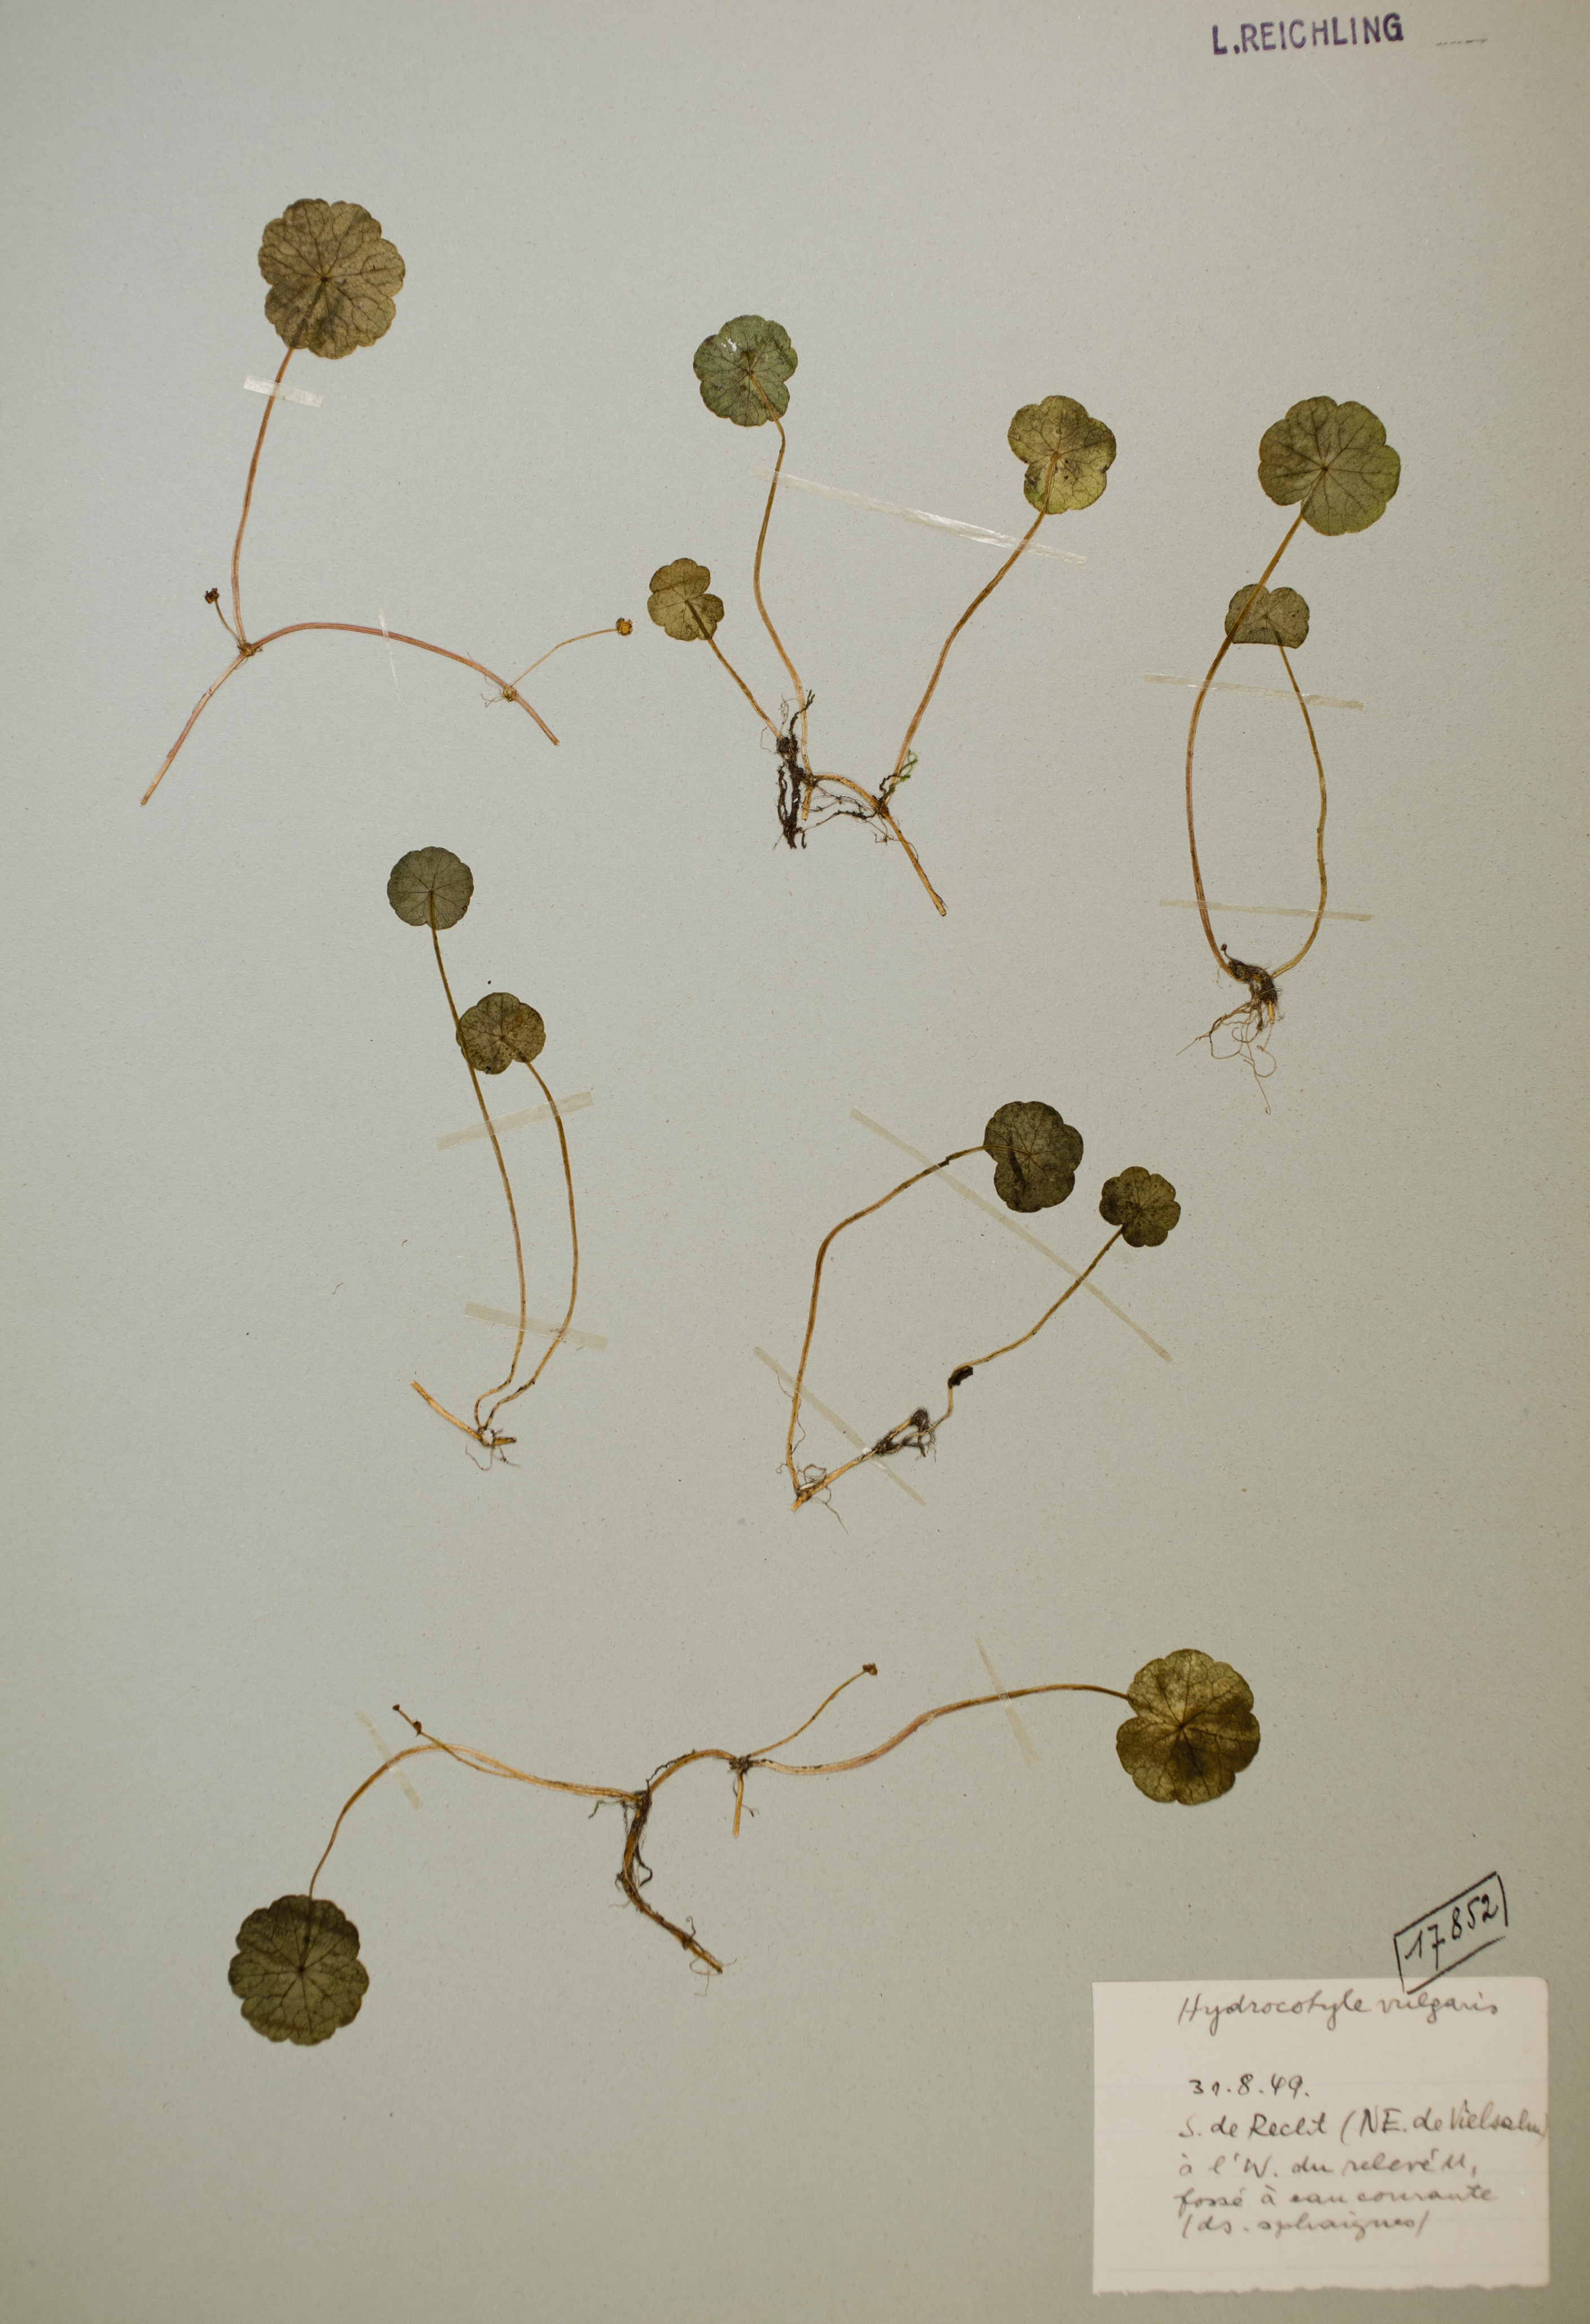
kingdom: Plantae
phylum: Tracheophyta
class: Magnoliopsida
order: Apiales
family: Araliaceae
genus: Hydrocotyle
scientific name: Hydrocotyle vulgaris
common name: Marsh pennywort
